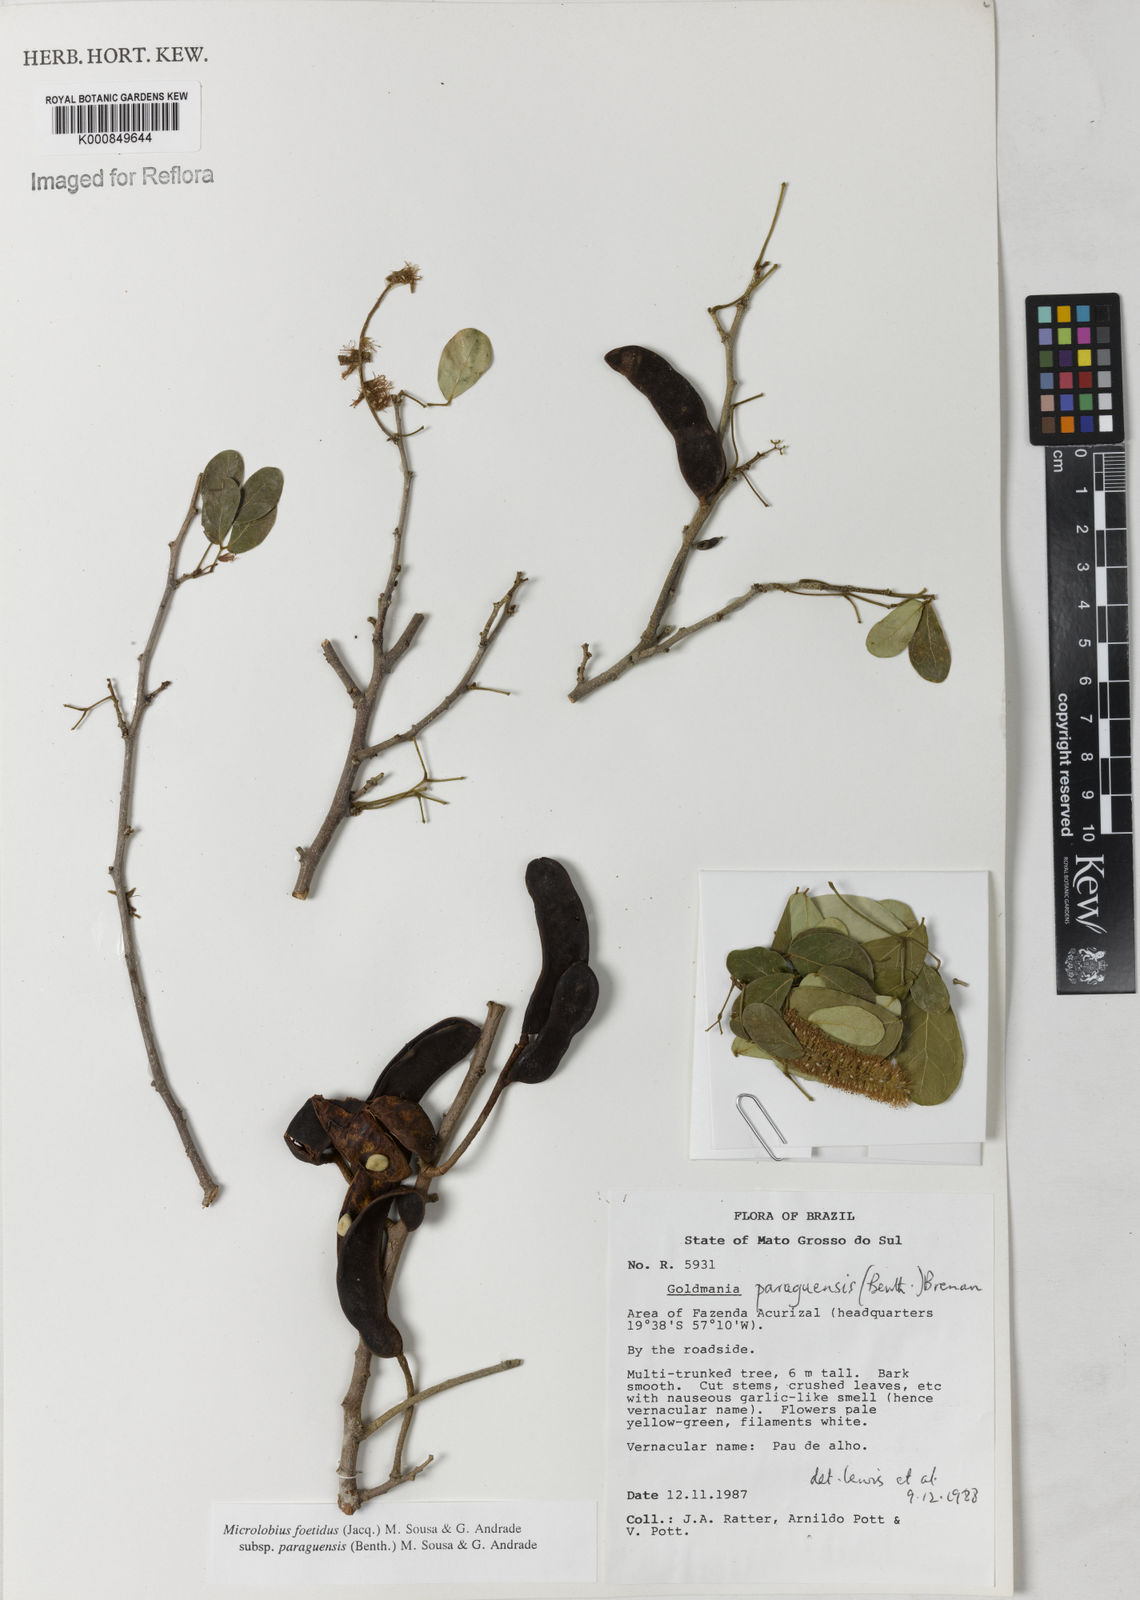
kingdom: Plantae
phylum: Tracheophyta
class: Magnoliopsida
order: Fabales
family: Fabaceae
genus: Microlobius
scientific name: Microlobius
